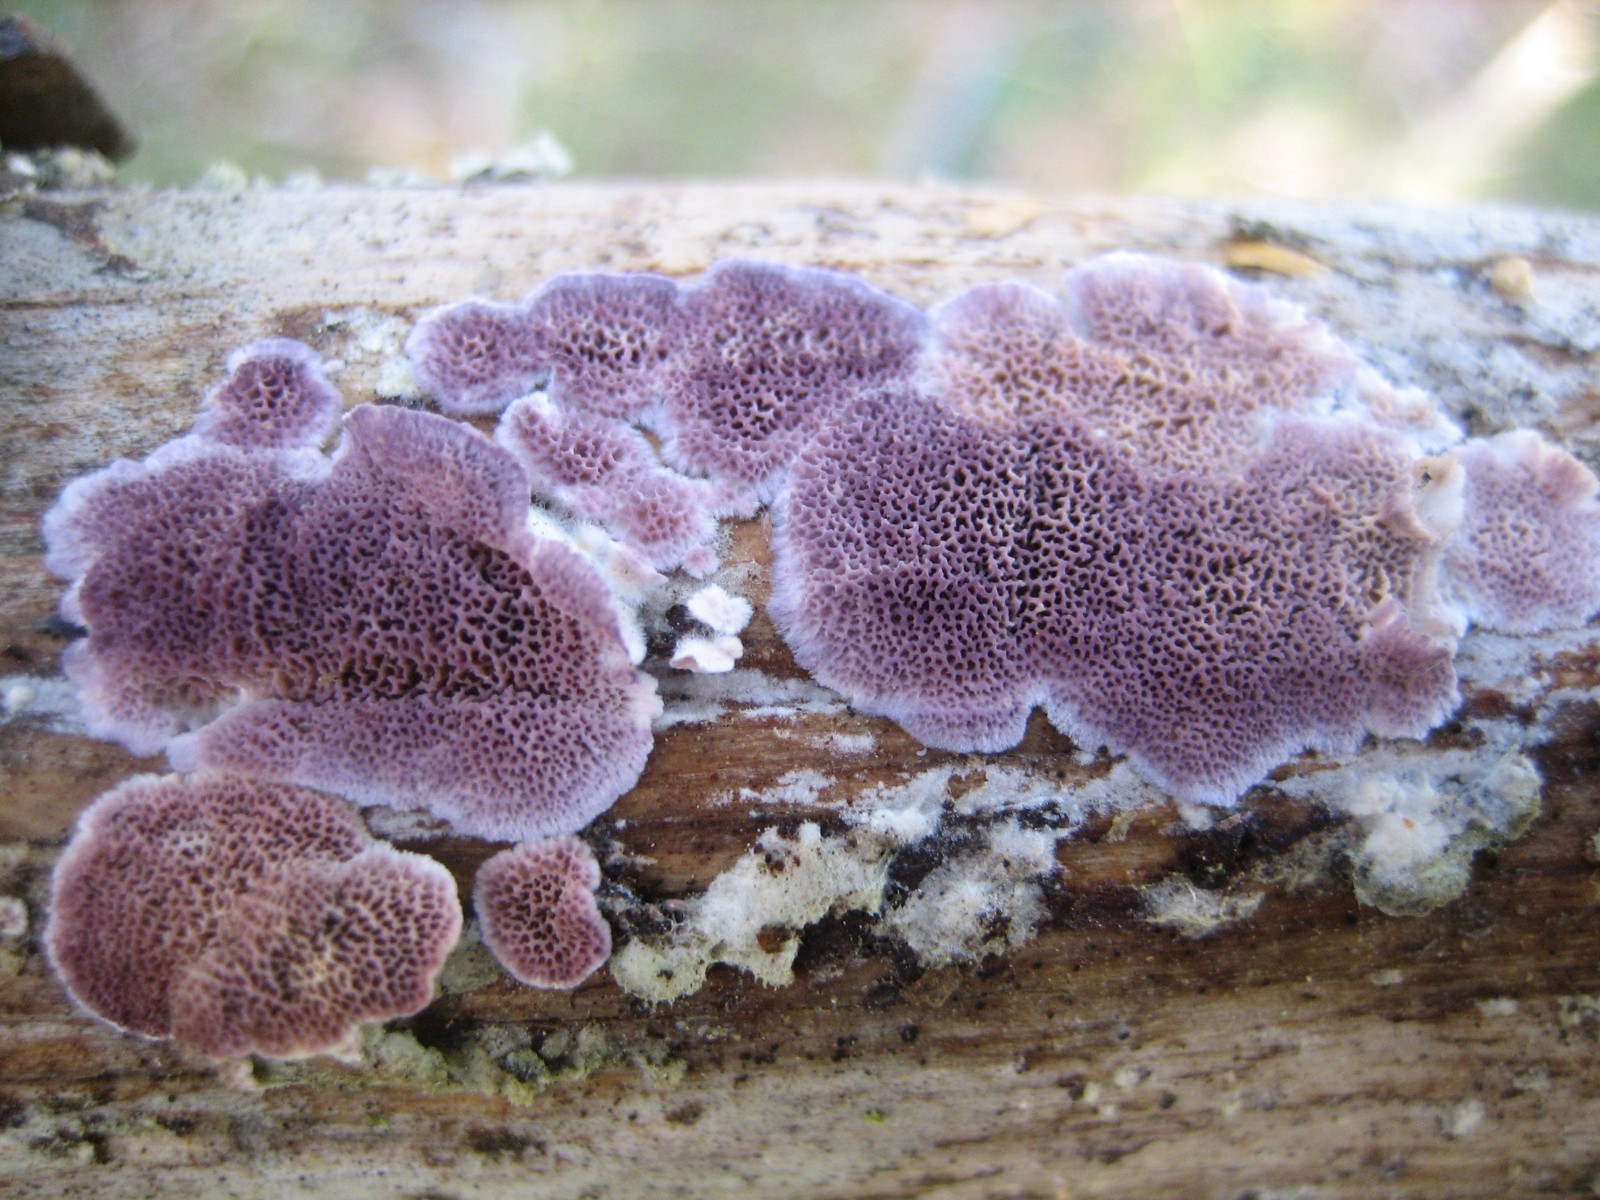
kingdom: Fungi
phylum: Basidiomycota
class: Agaricomycetes
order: Hymenochaetales
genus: Trichaptum
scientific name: Trichaptum abietinum
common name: almindelig violporesvamp
